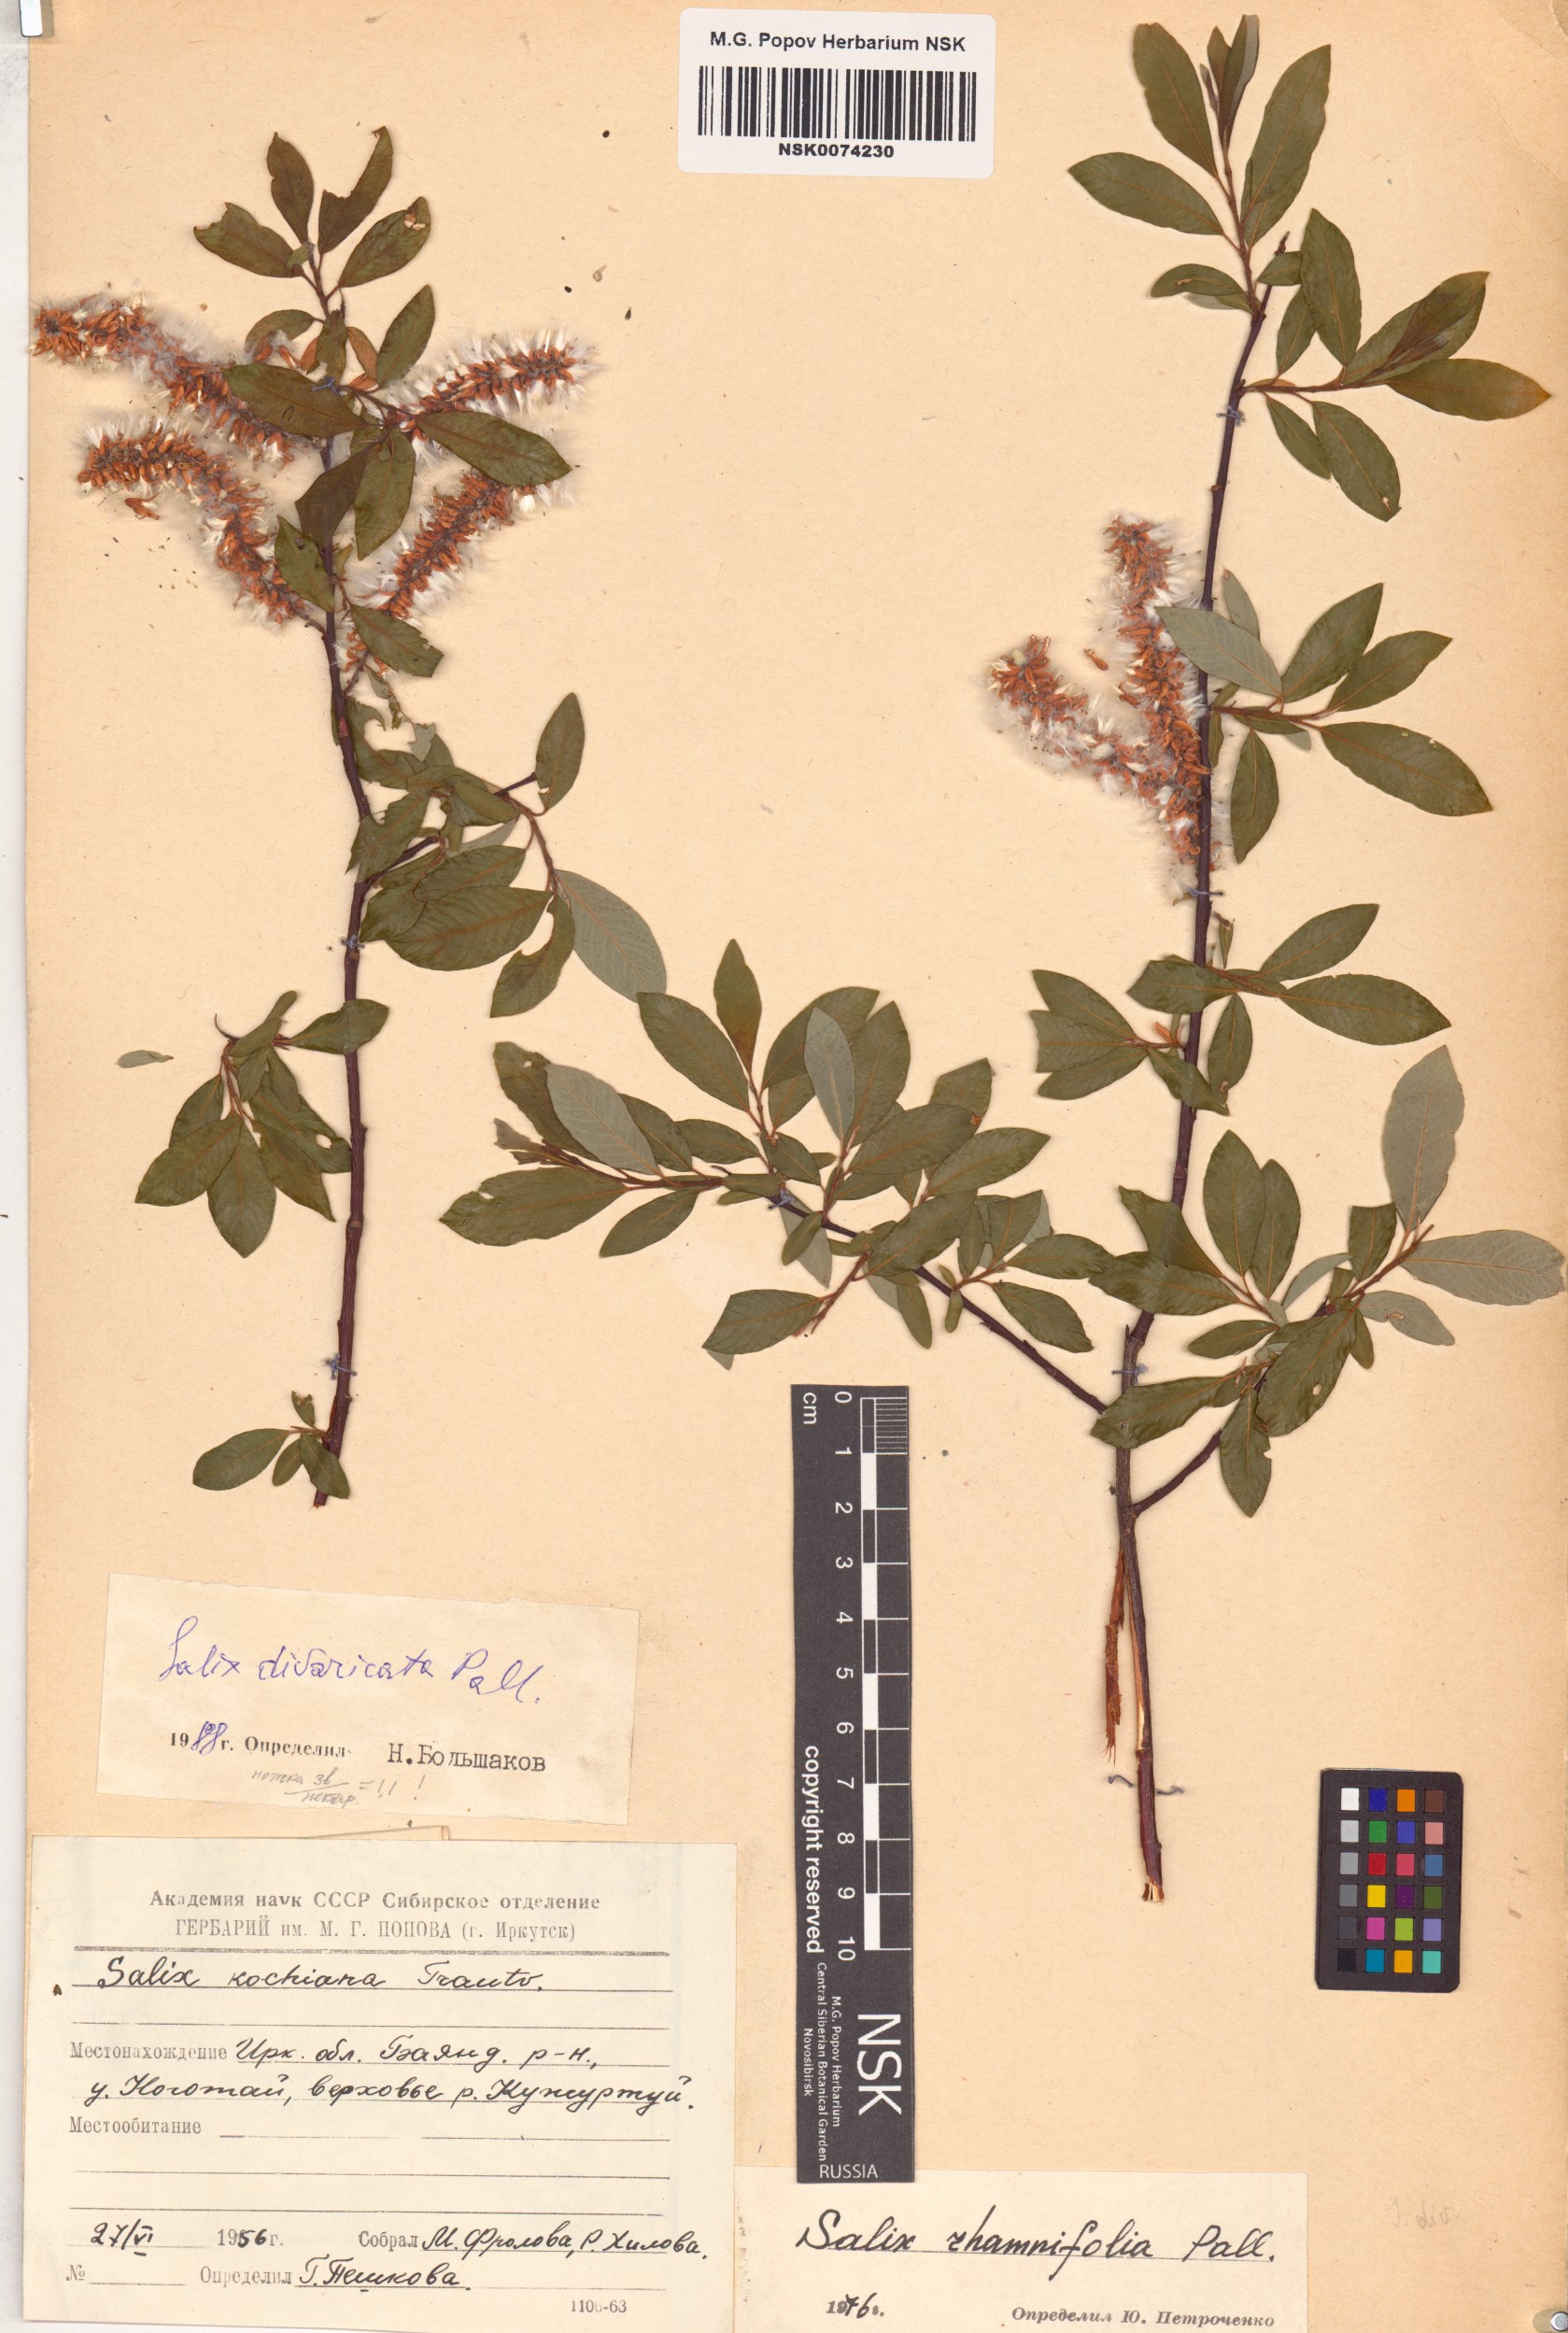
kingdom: Plantae
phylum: Tracheophyta
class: Magnoliopsida
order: Malpighiales
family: Salicaceae
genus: Salix
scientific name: Salix divaricata
